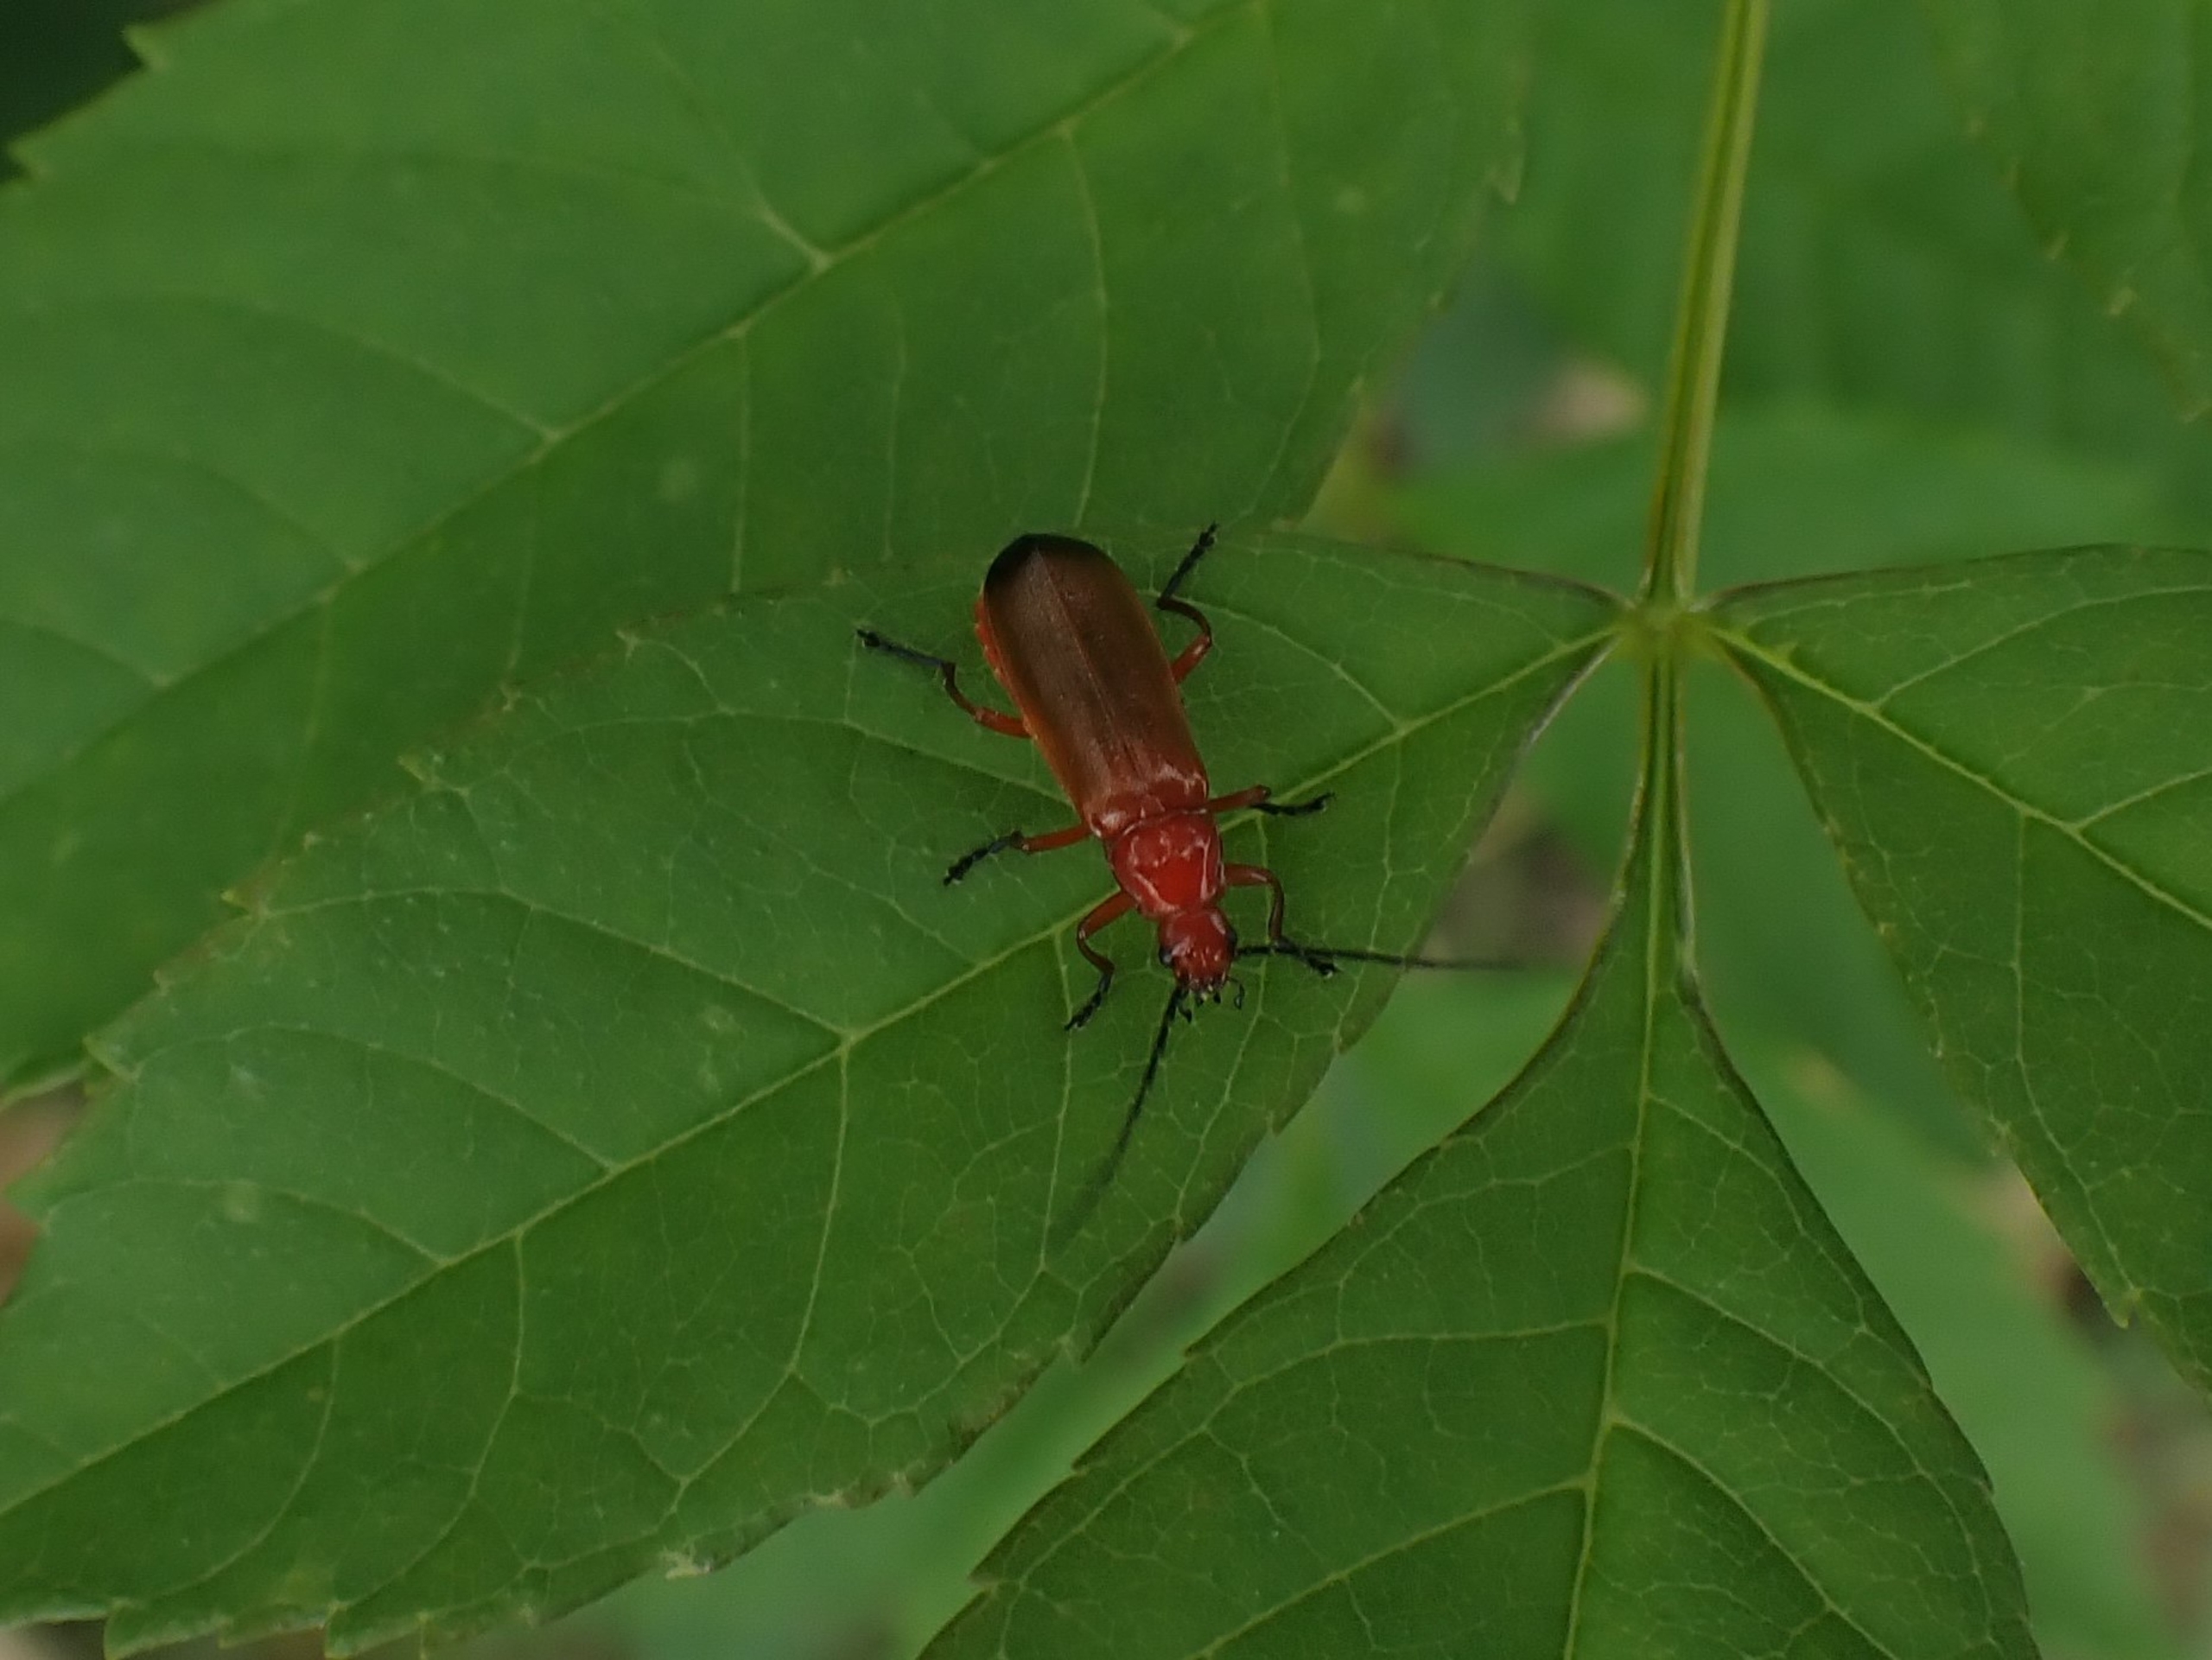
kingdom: Animalia
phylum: Arthropoda
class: Insecta
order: Coleoptera
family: Cantharidae
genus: Rhagonycha
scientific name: Rhagonycha fulva
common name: Præstebille
